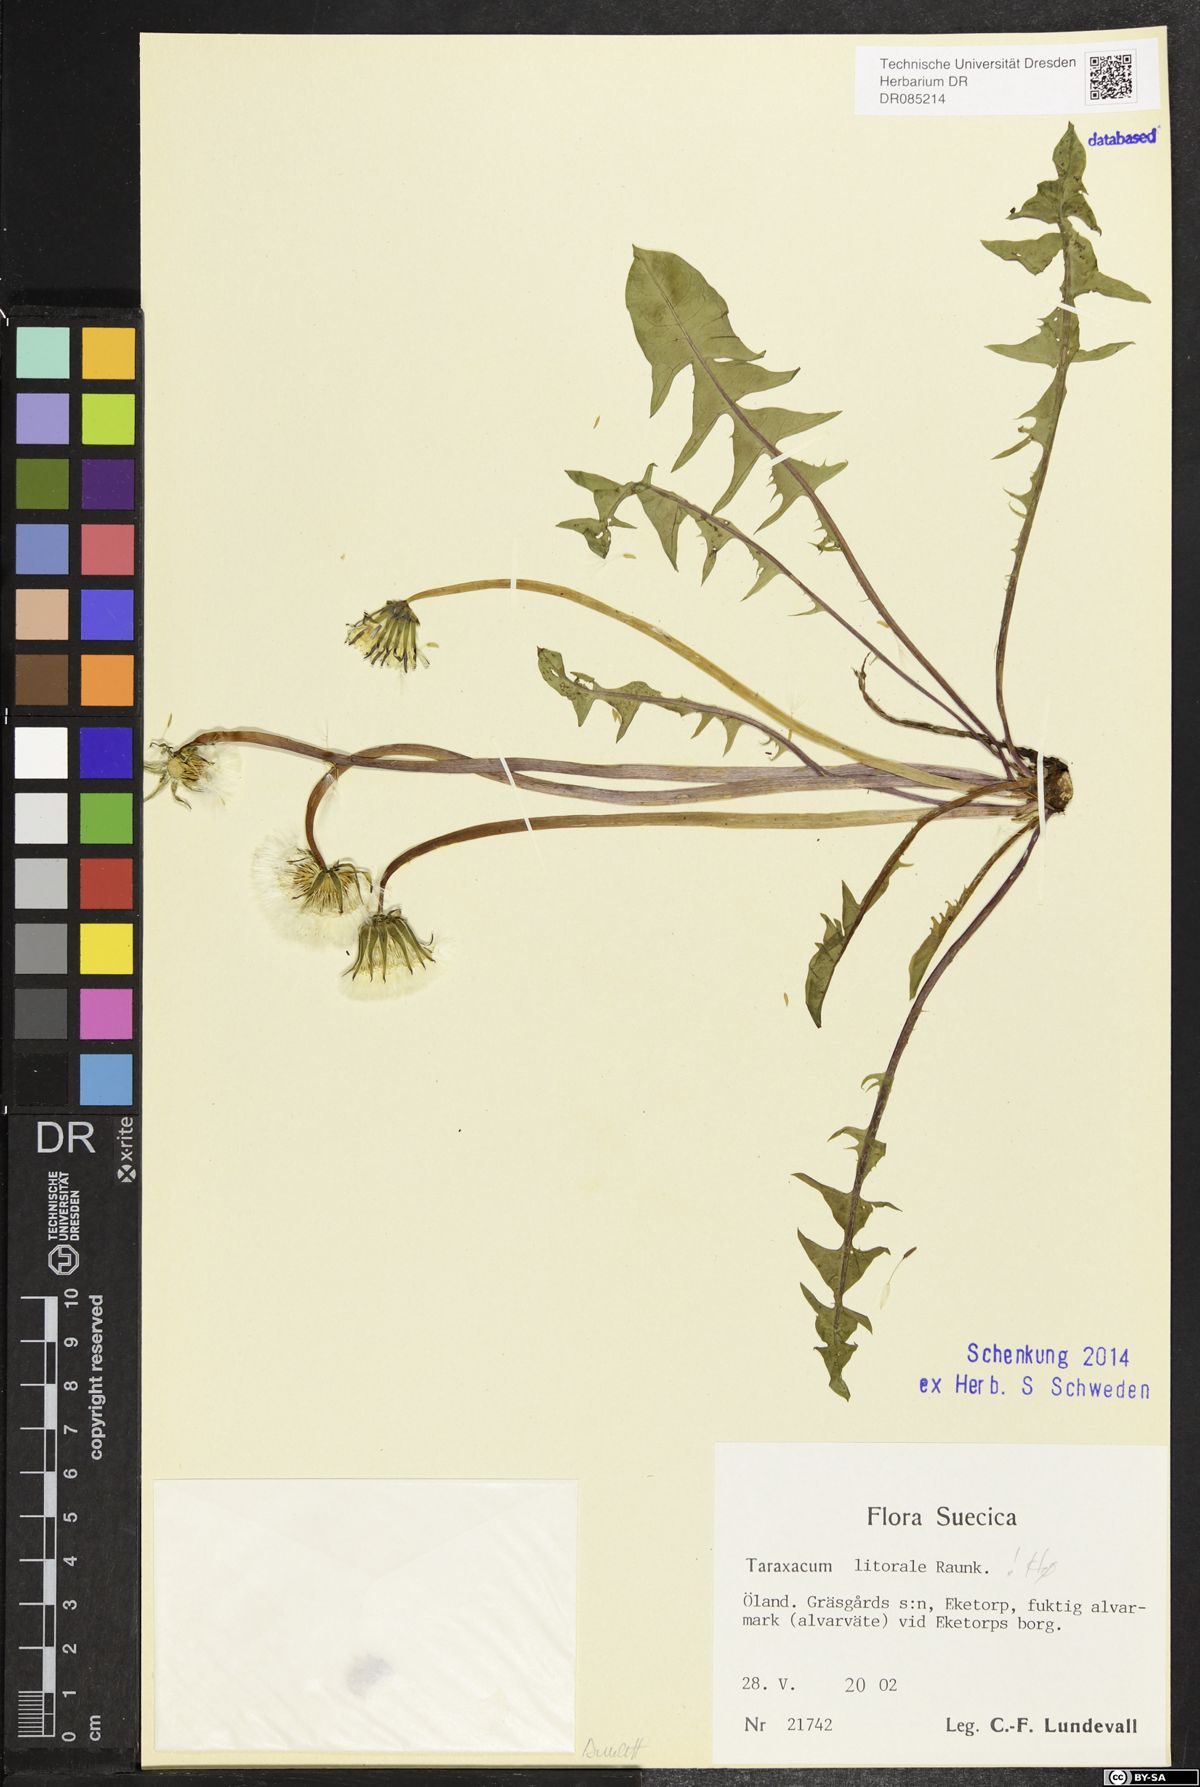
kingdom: Plantae
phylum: Tracheophyta
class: Magnoliopsida
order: Asterales
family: Asteraceae
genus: Taraxacum
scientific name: Taraxacum litorale
